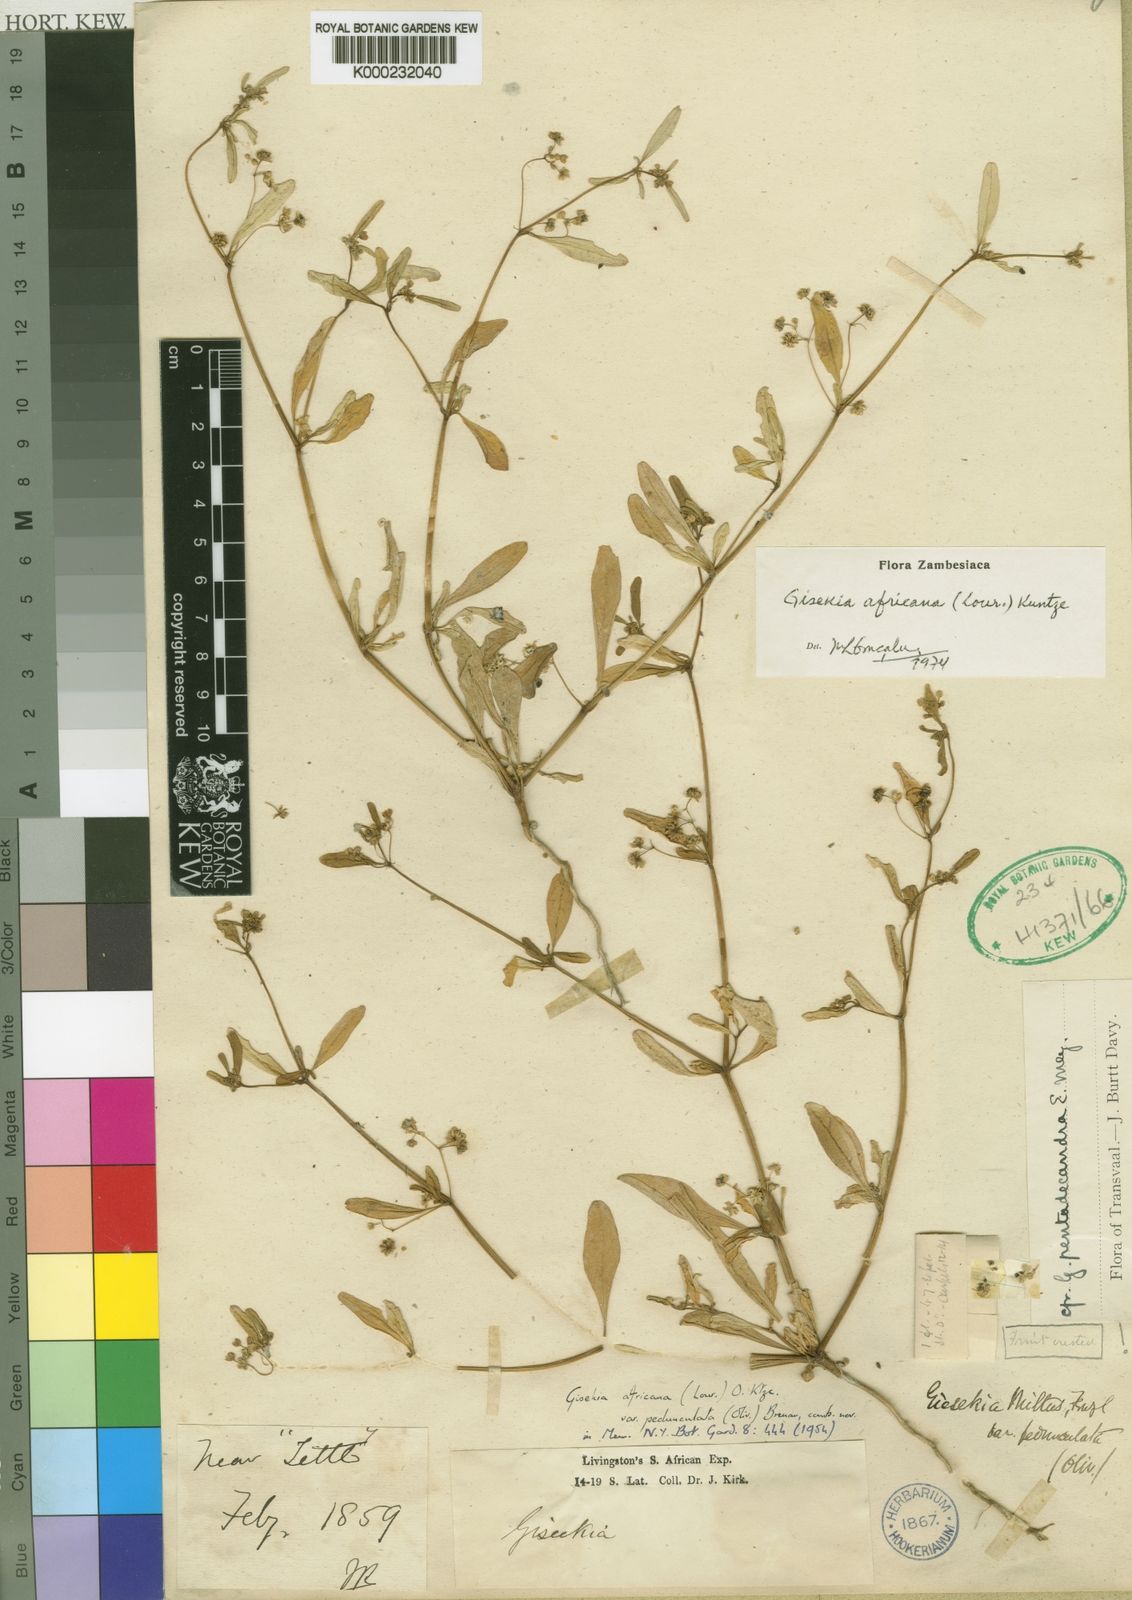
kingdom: Plantae
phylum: Tracheophyta
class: Magnoliopsida
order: Caryophyllales
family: Gisekiaceae
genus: Gisekia
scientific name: Gisekia africana
